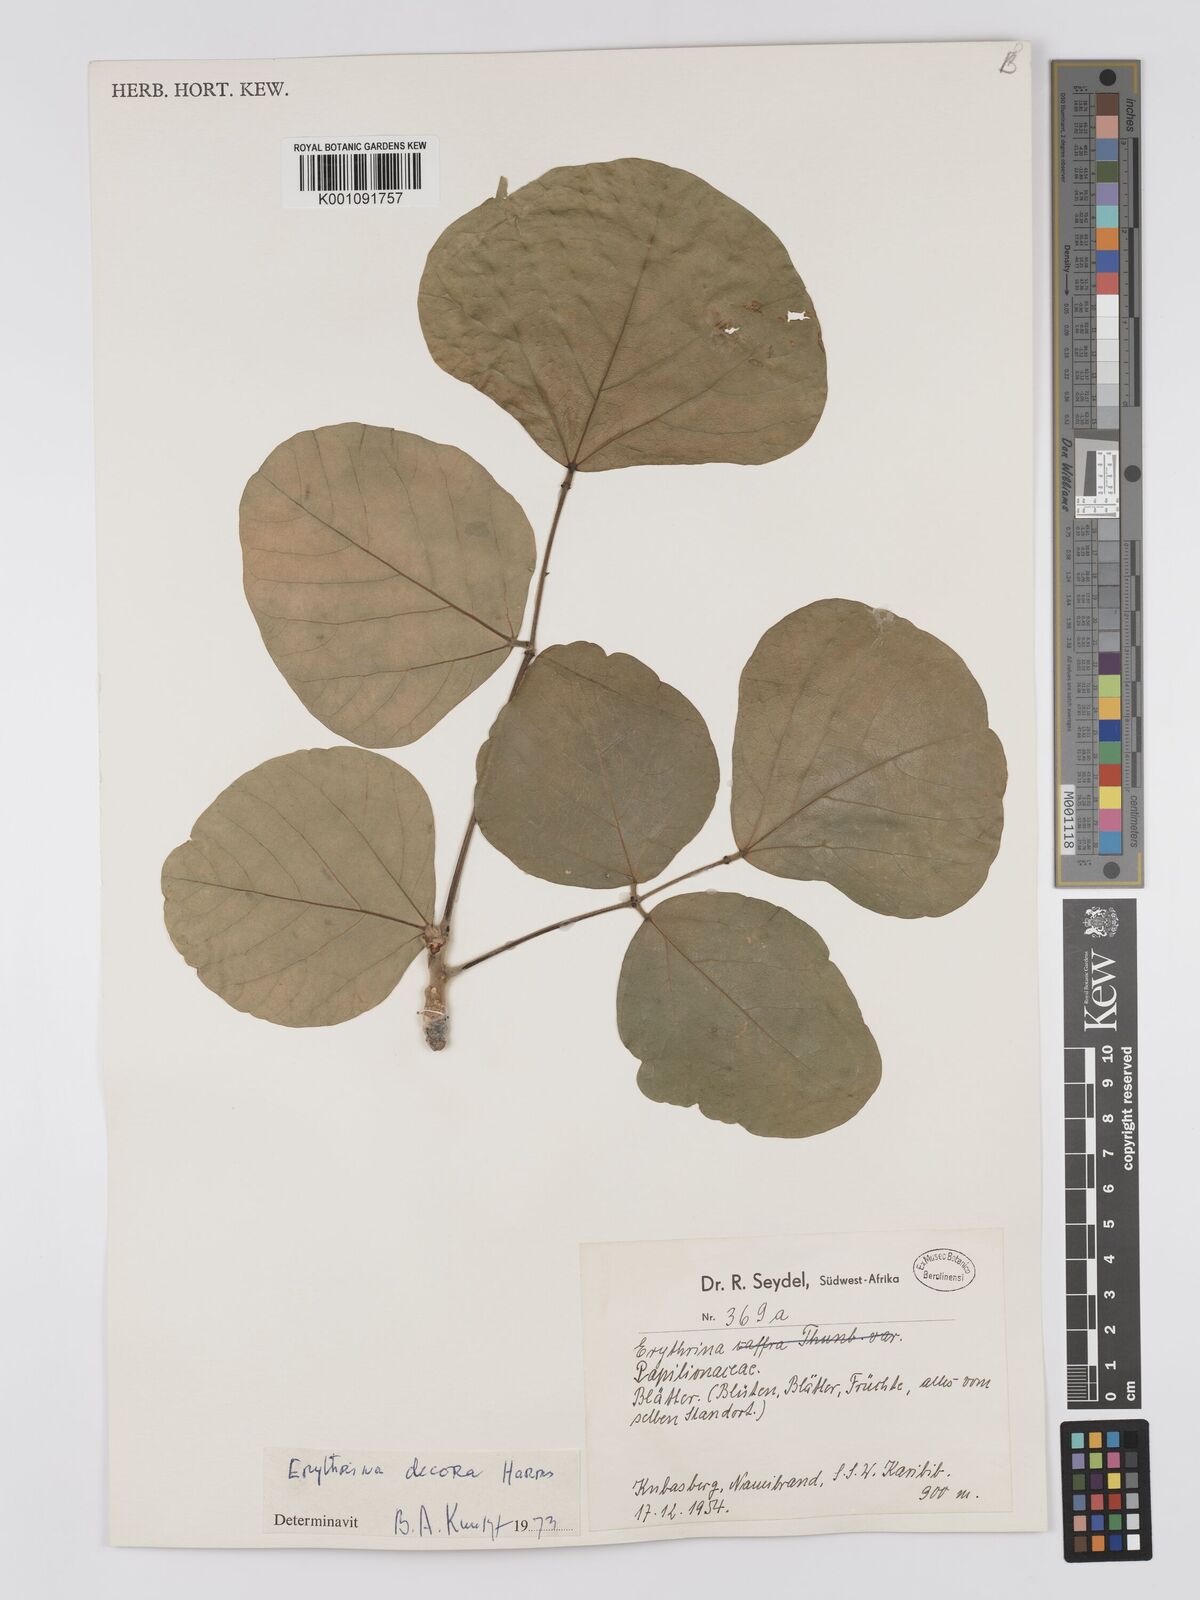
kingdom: Plantae
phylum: Tracheophyta
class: Magnoliopsida
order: Fabales
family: Fabaceae
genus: Erythrina
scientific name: Erythrina decora
